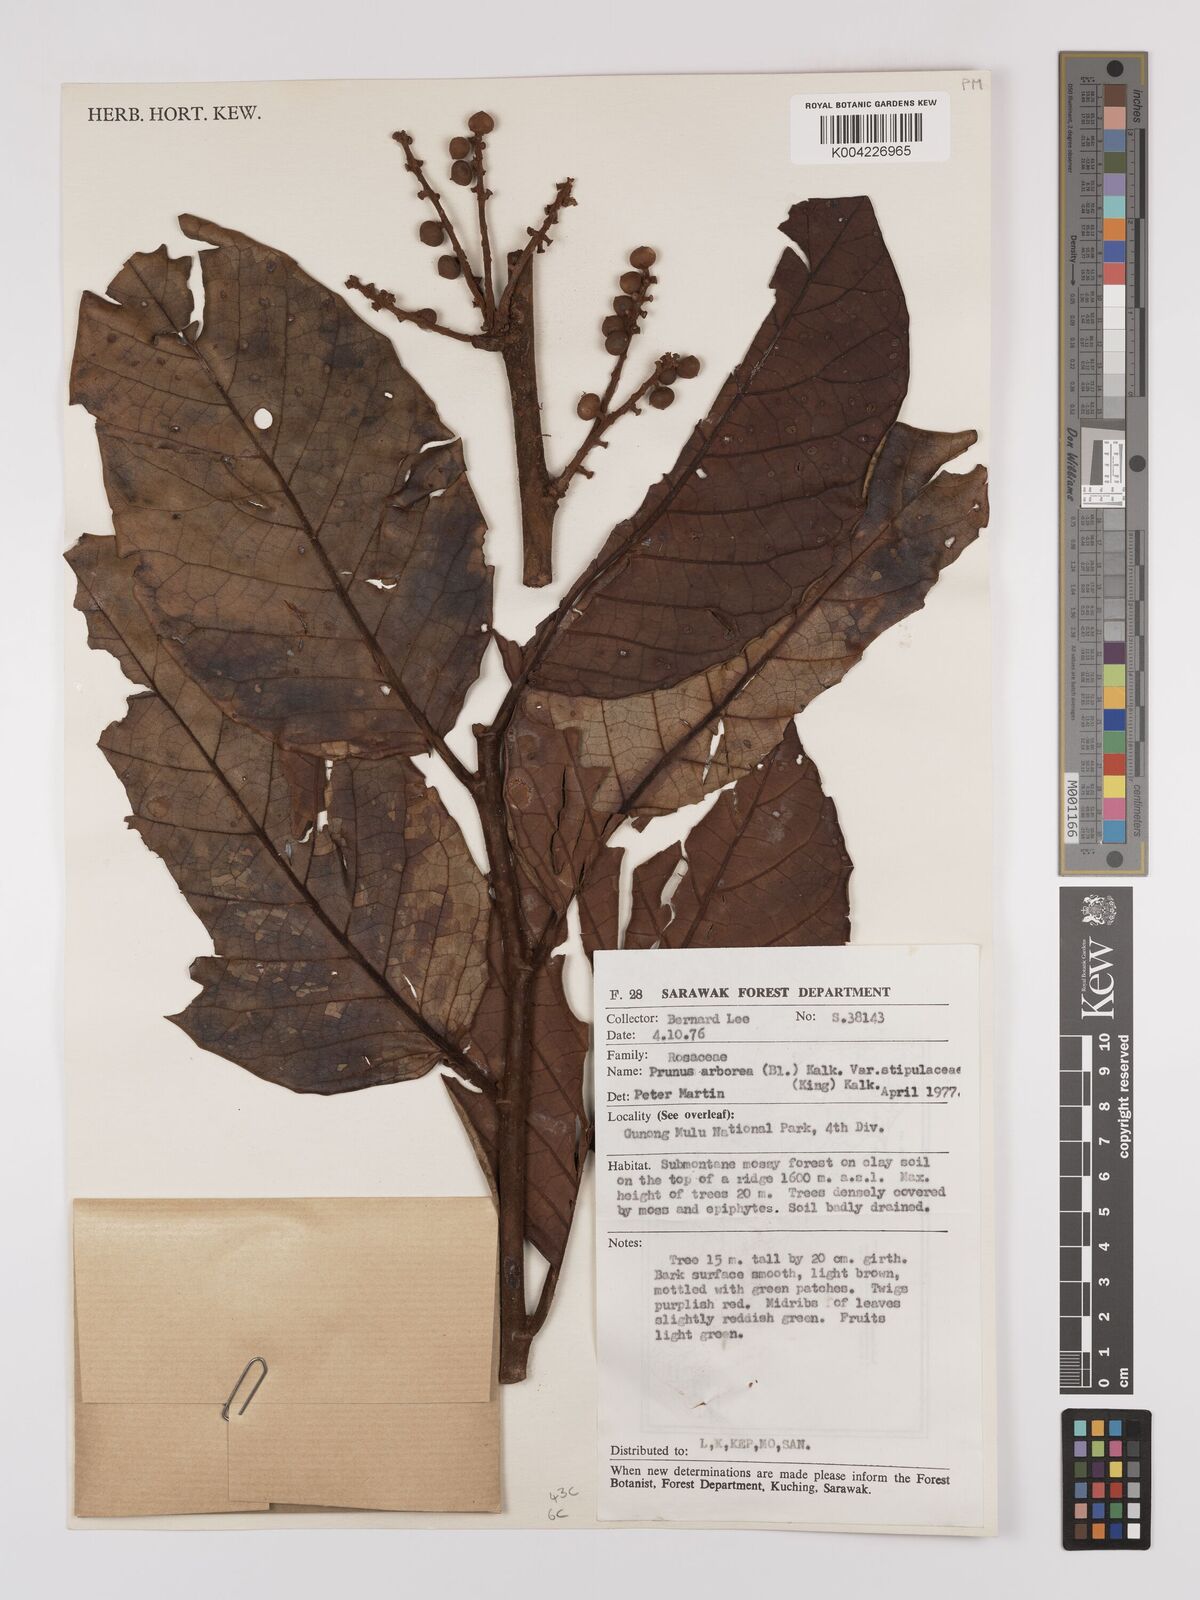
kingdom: Plantae
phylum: Tracheophyta
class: Magnoliopsida
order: Rosales
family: Rosaceae
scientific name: Rosaceae
